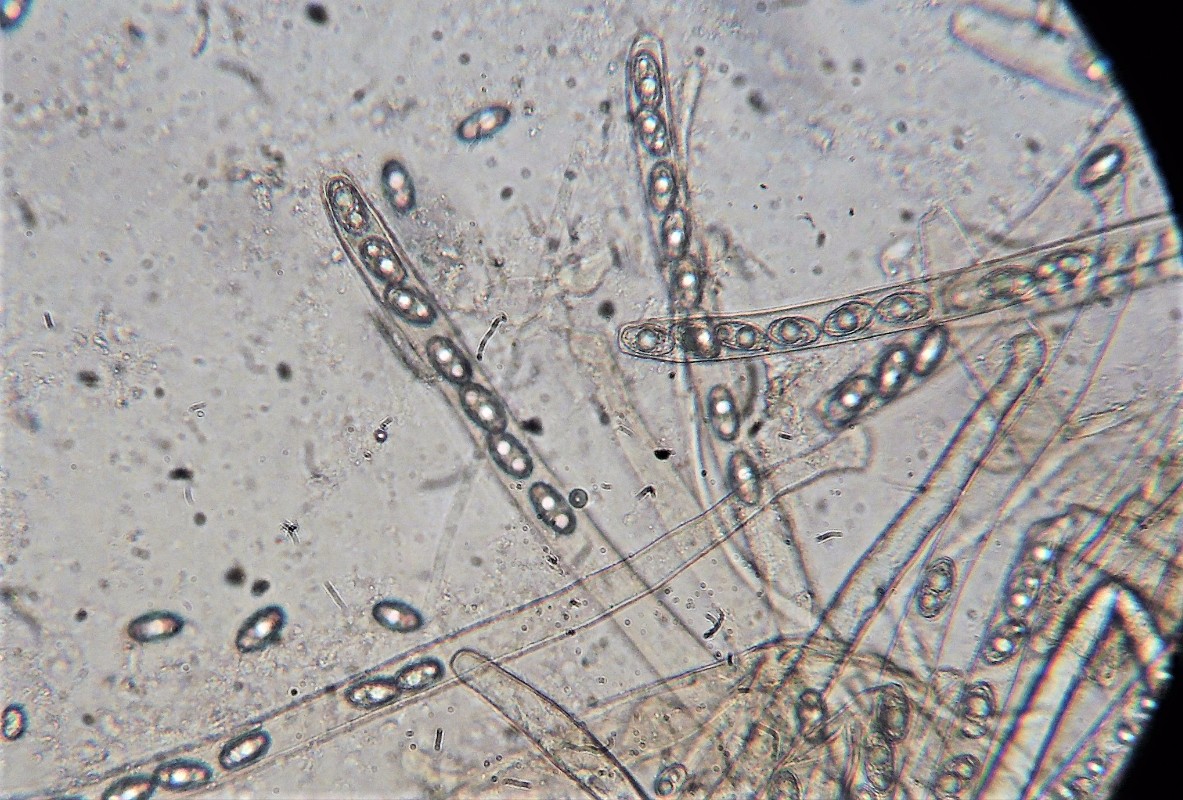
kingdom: Fungi
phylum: Ascomycota
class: Pezizomycetes
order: Pezizales
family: Pezizaceae
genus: Legaliana
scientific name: Legaliana badia
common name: leverbrun bægersvamp
